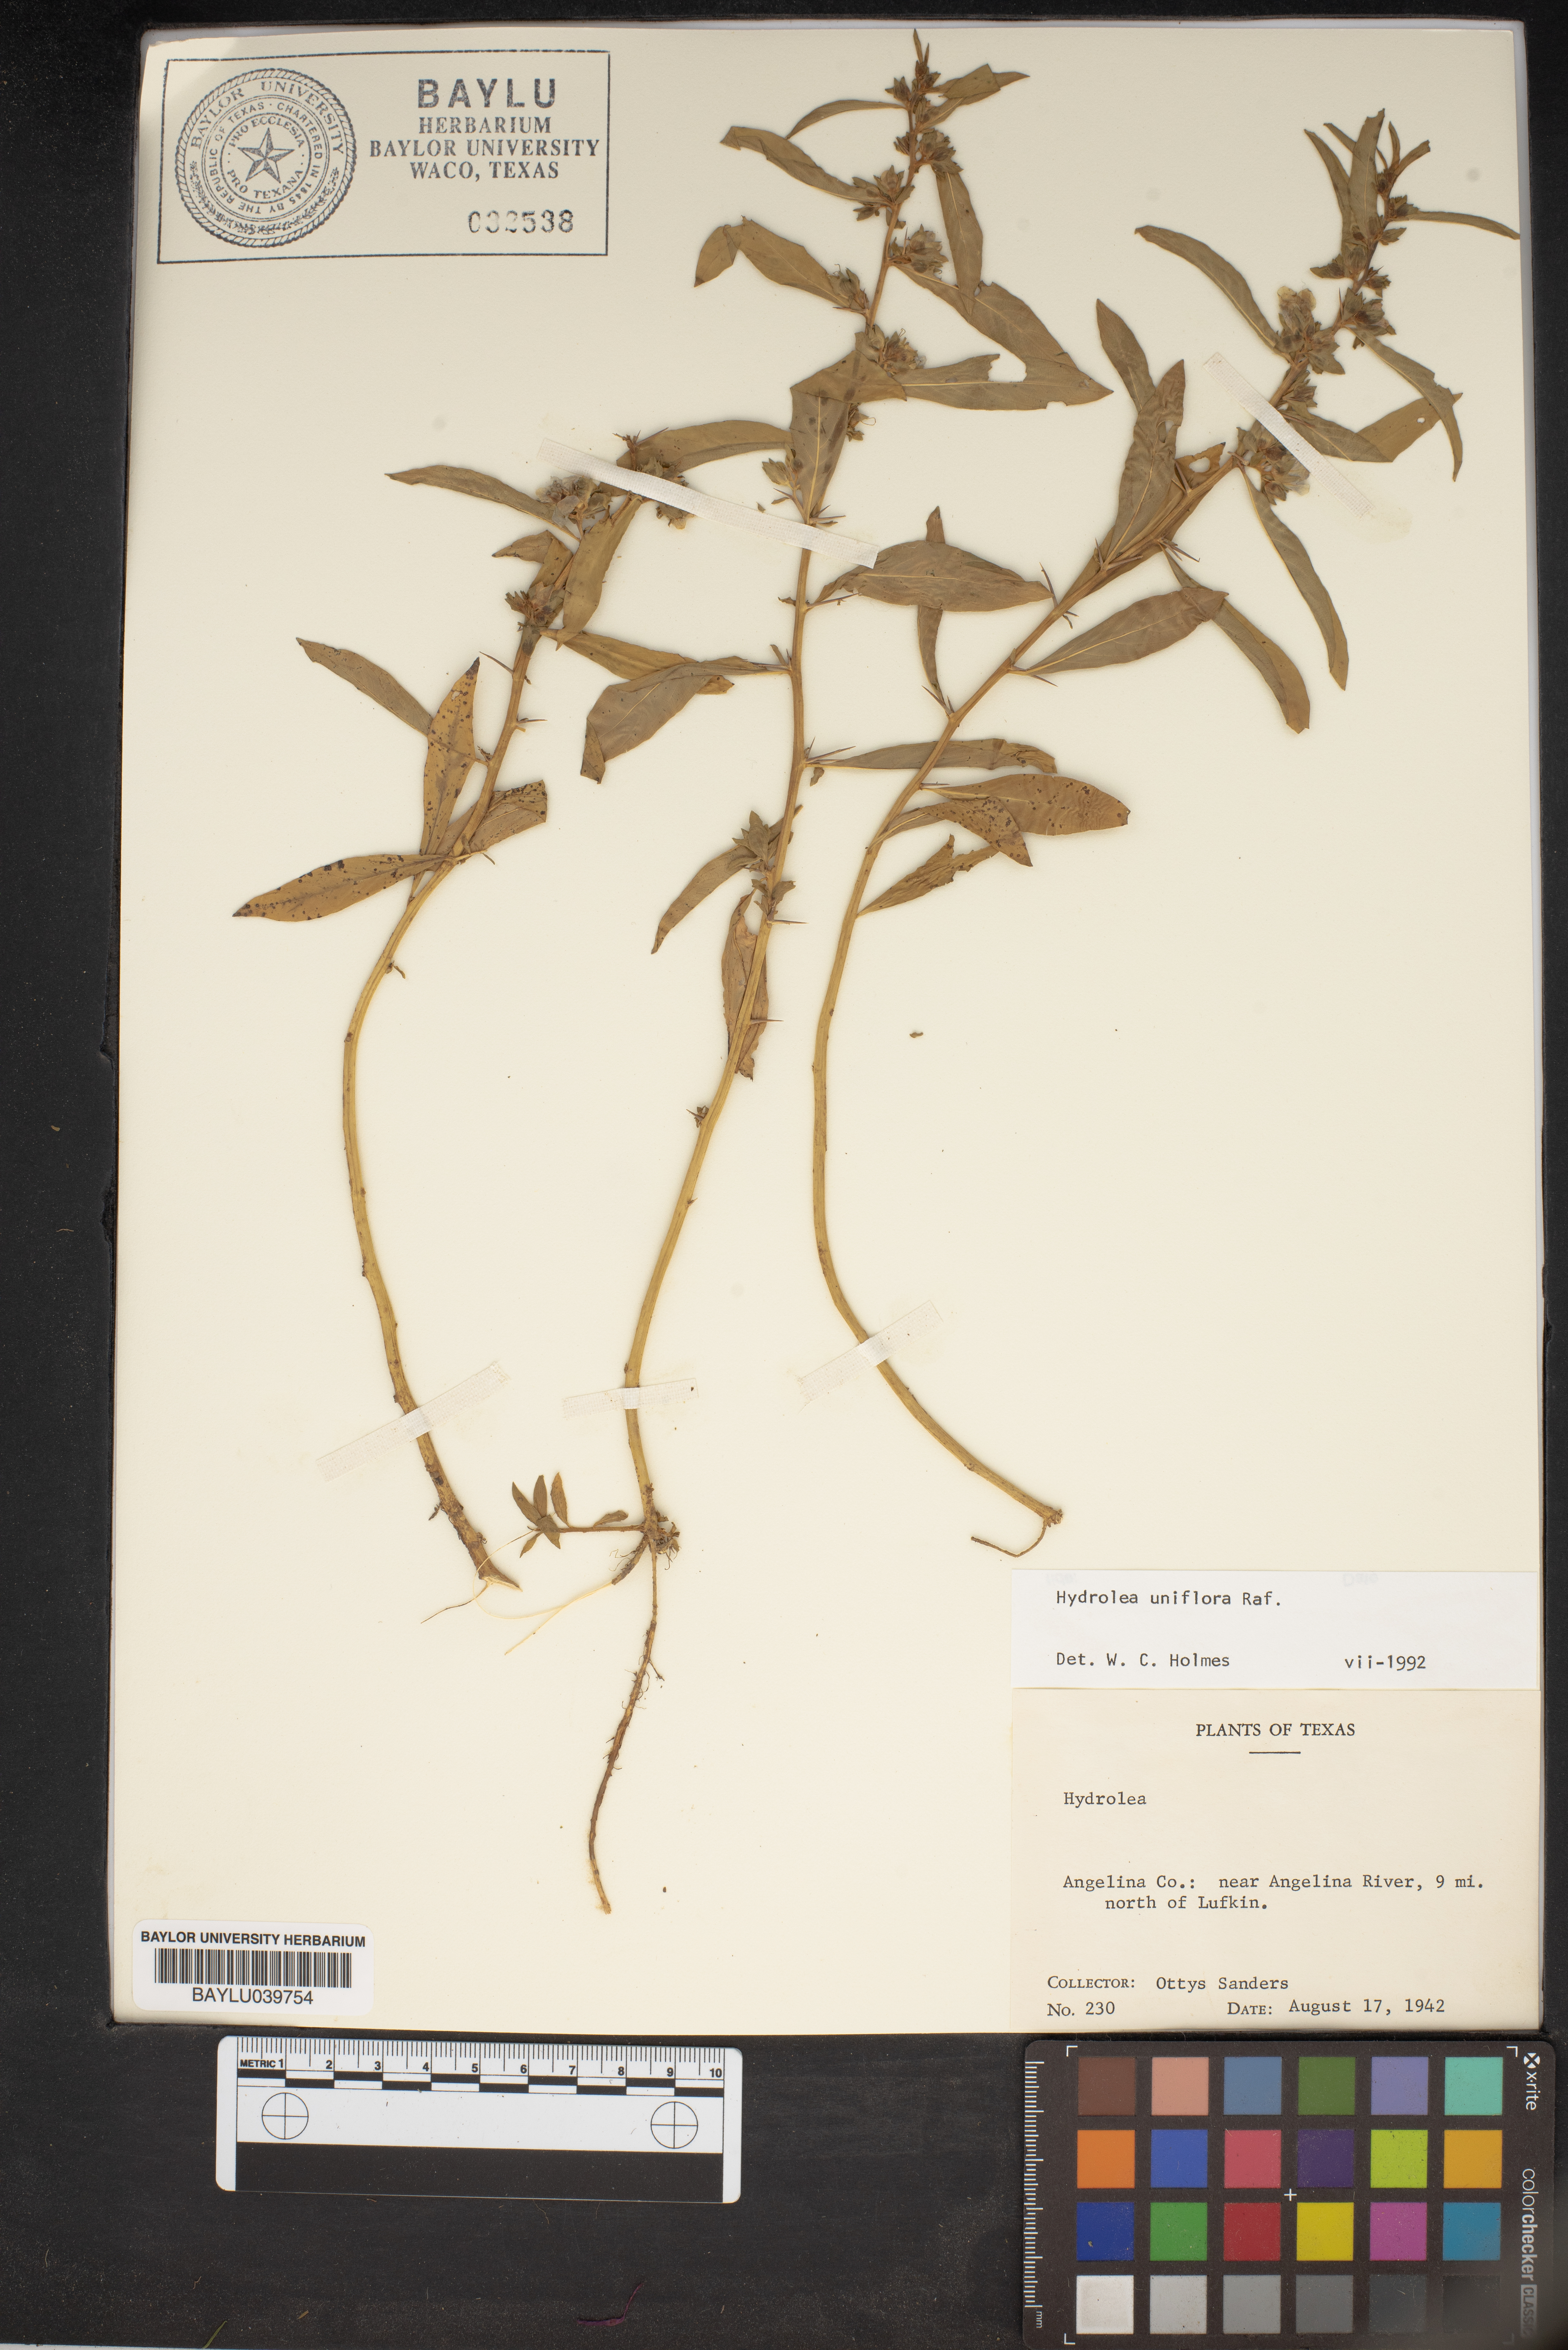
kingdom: Plantae
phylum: Tracheophyta
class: Magnoliopsida
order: Solanales
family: Hydroleaceae
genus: Hydrolea
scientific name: Hydrolea uniflora
